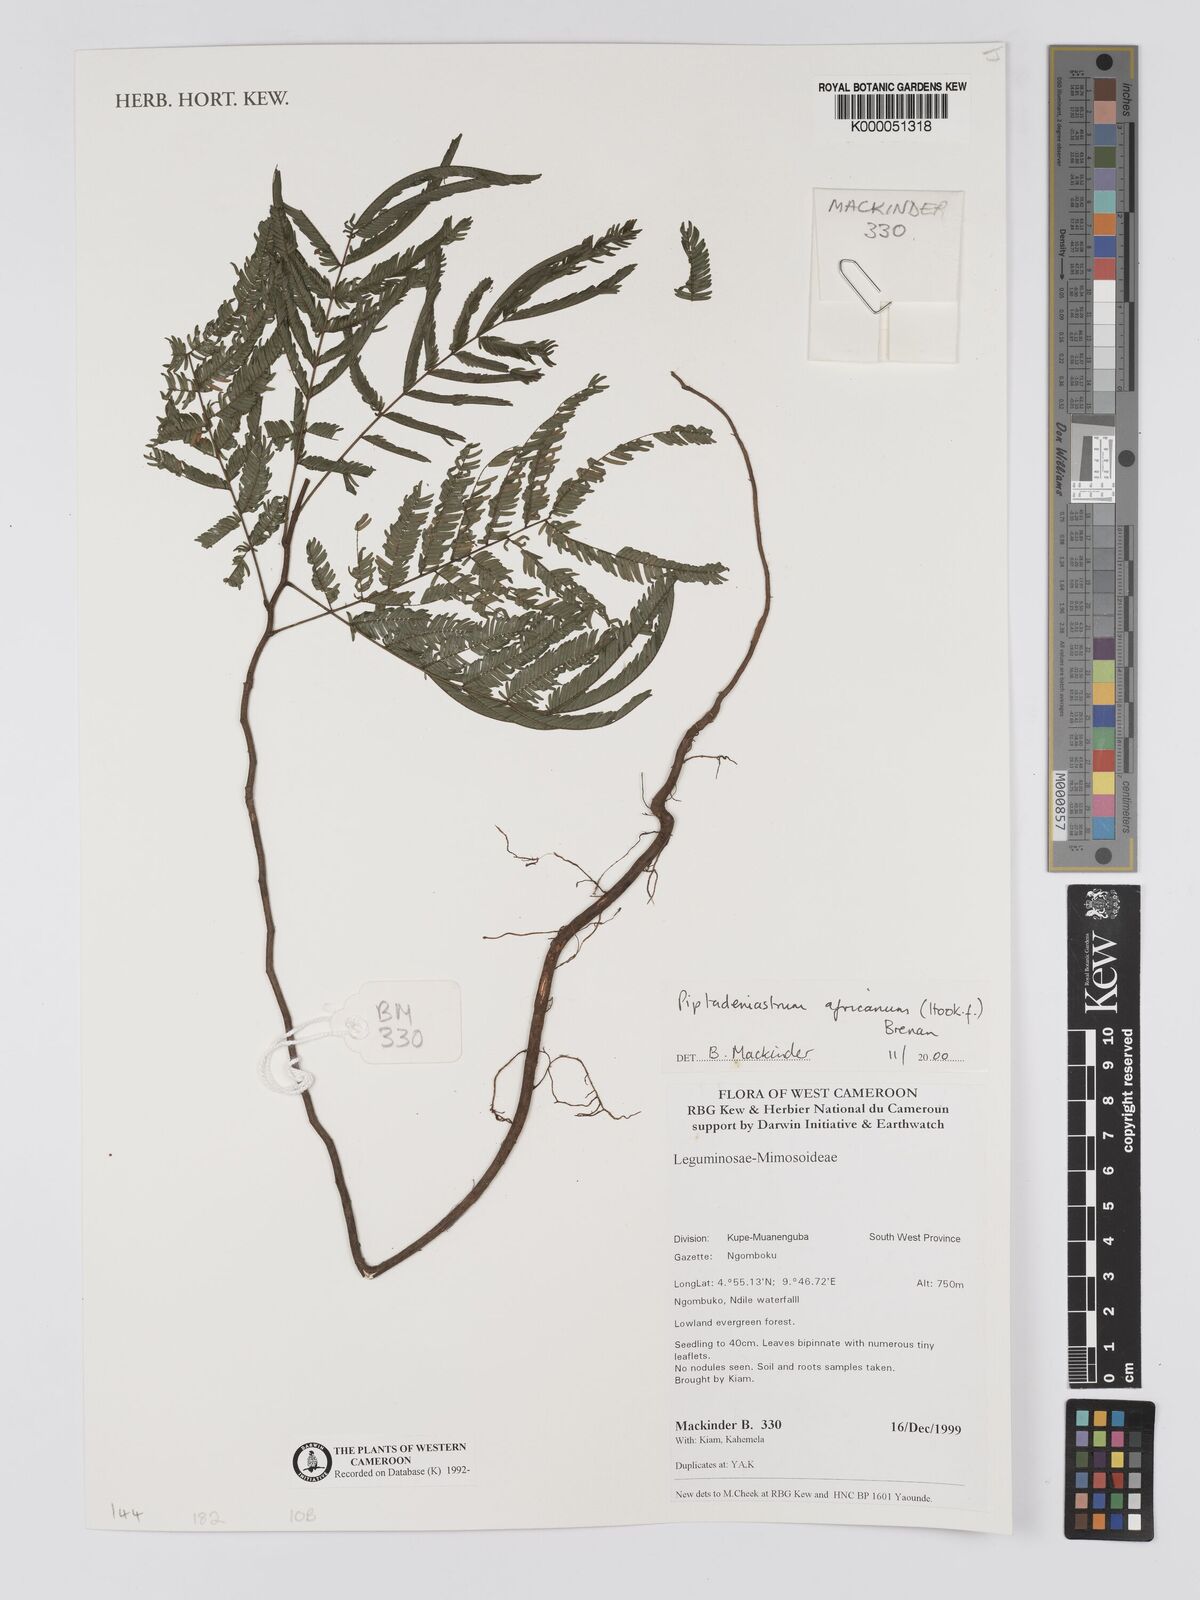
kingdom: Plantae
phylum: Tracheophyta
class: Magnoliopsida
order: Fabales
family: Fabaceae
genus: Piptadeniastrum
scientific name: Piptadeniastrum africanum
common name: African greenheart
